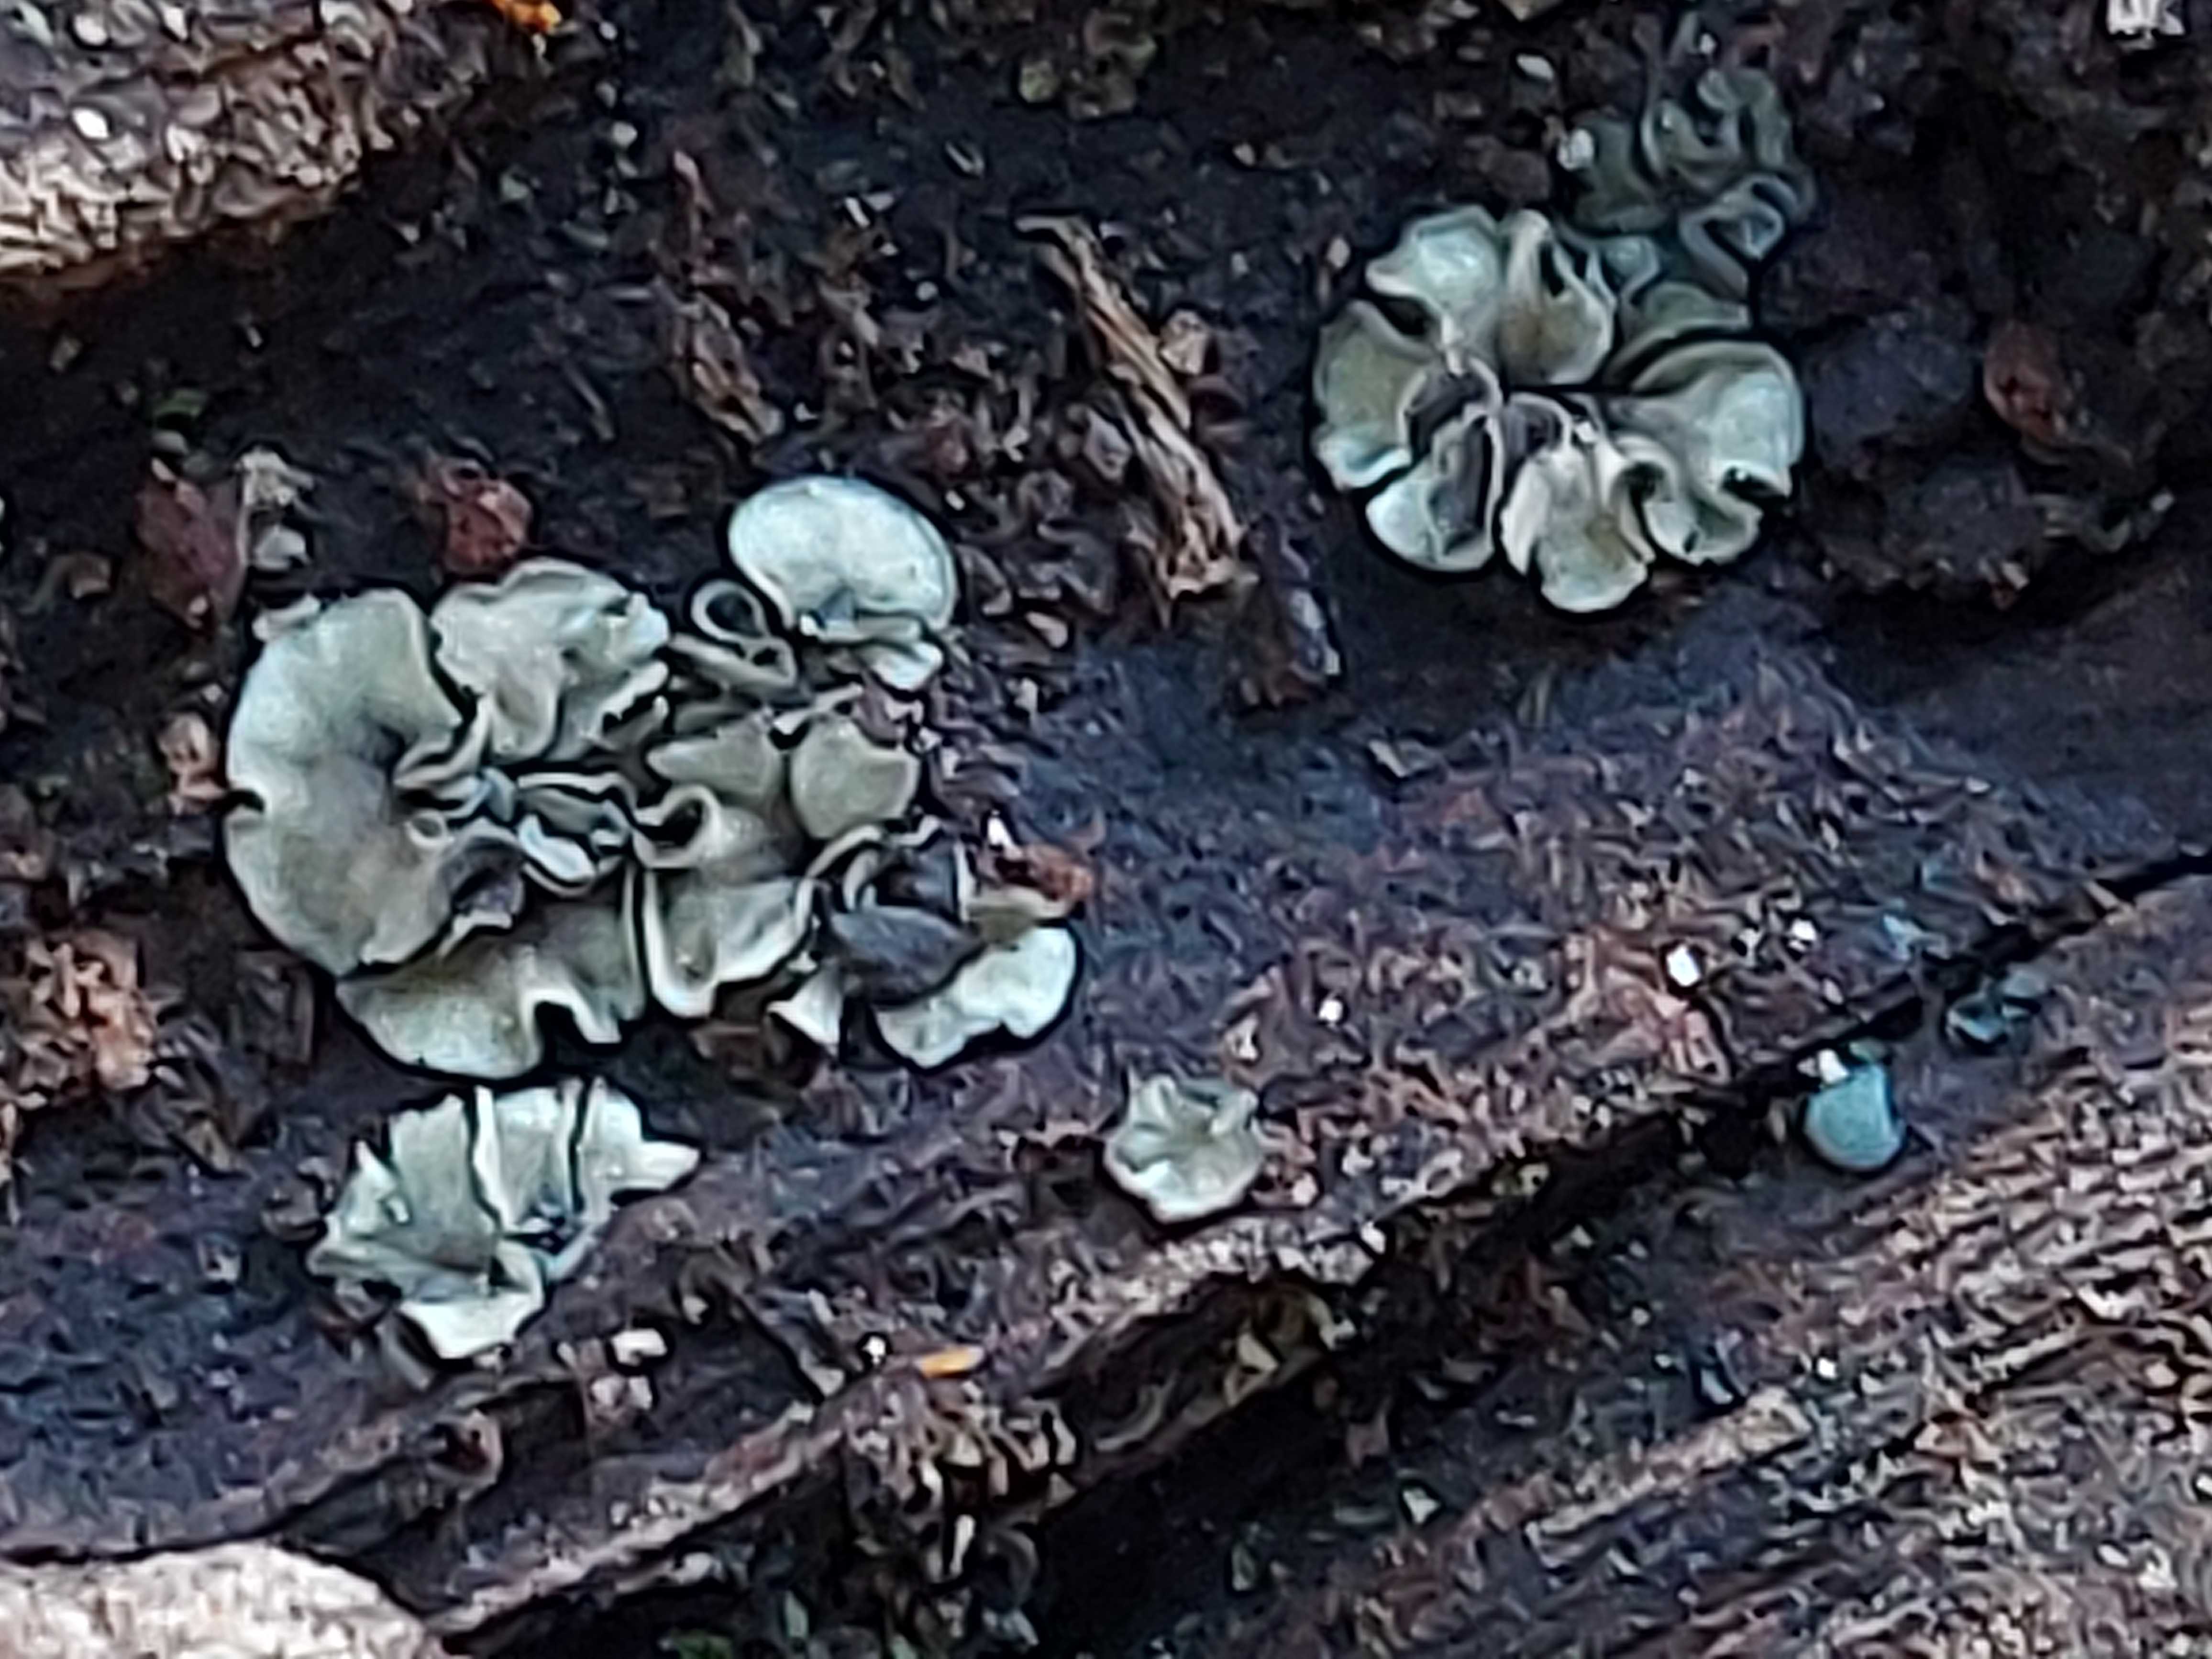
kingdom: Fungi
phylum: Ascomycota
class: Leotiomycetes
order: Helotiales
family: Mollisiaceae
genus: Mollisia
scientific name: Mollisia
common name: gråskive
